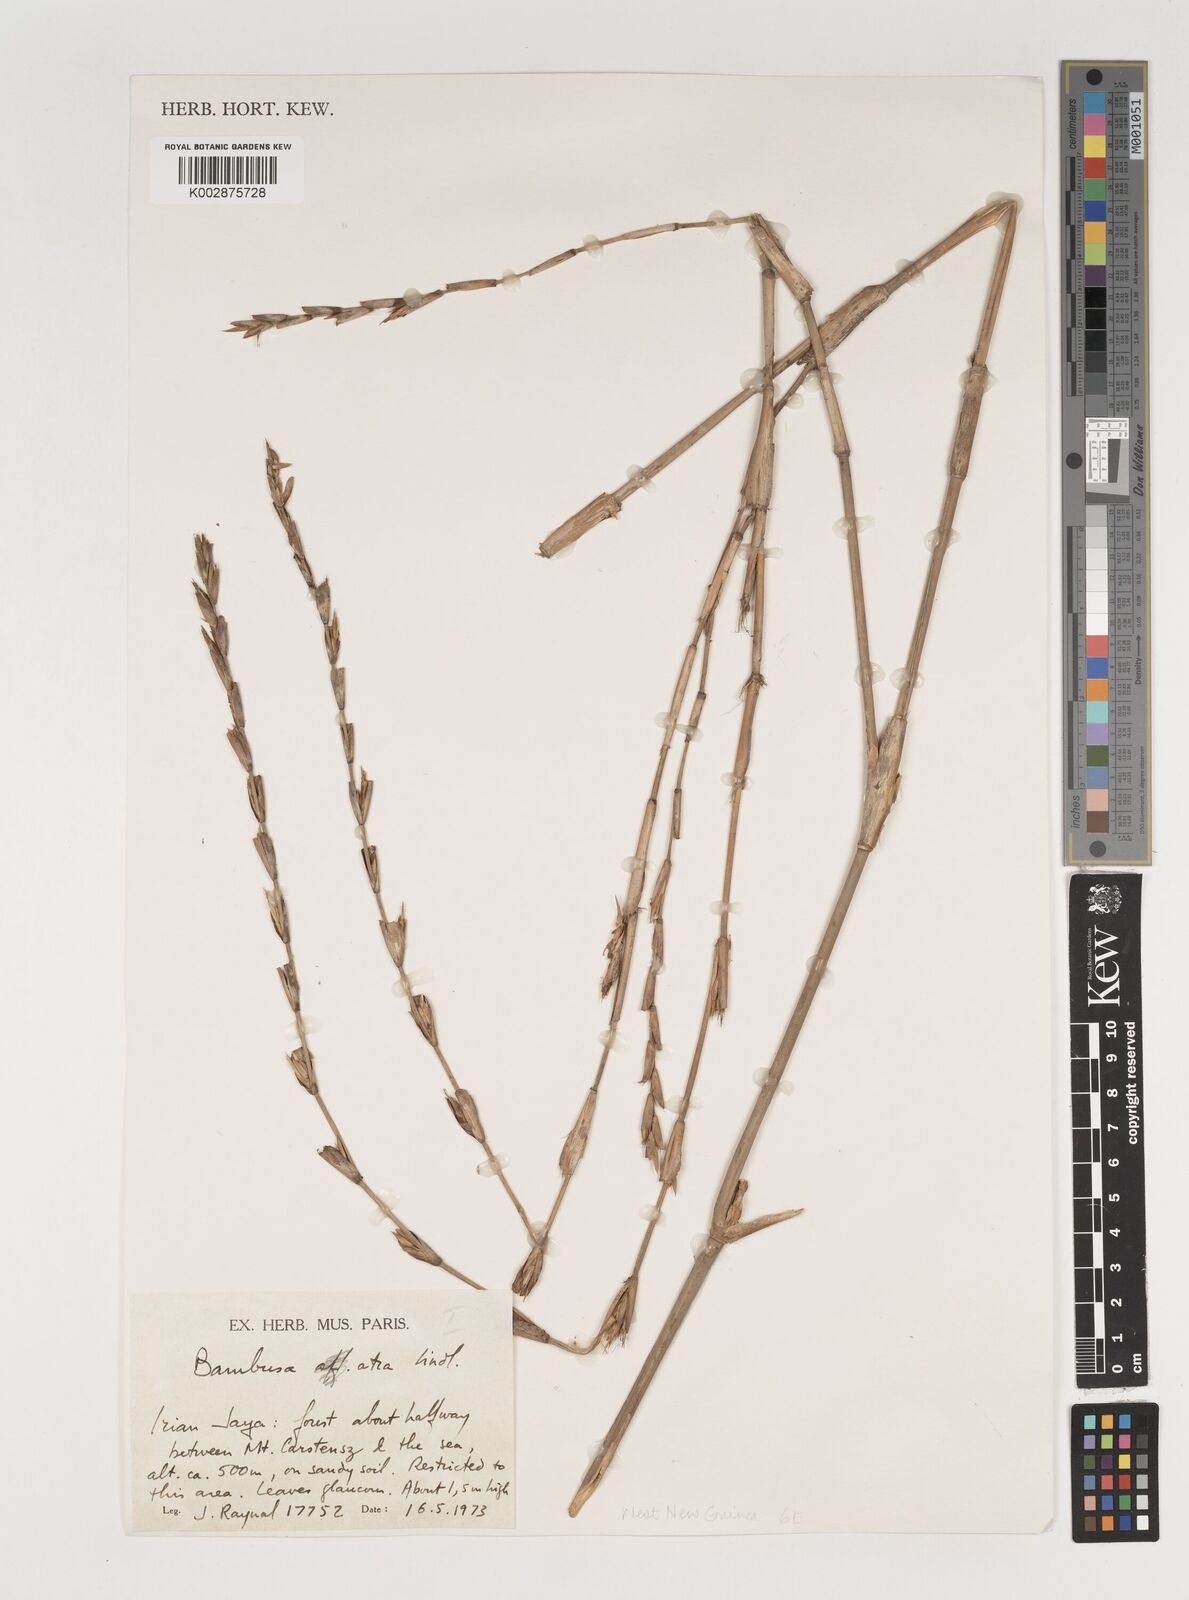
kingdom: Plantae
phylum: Tracheophyta
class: Liliopsida
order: Poales
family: Poaceae
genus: Neololeba
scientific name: Neololeba atra
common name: Cape bamboo
